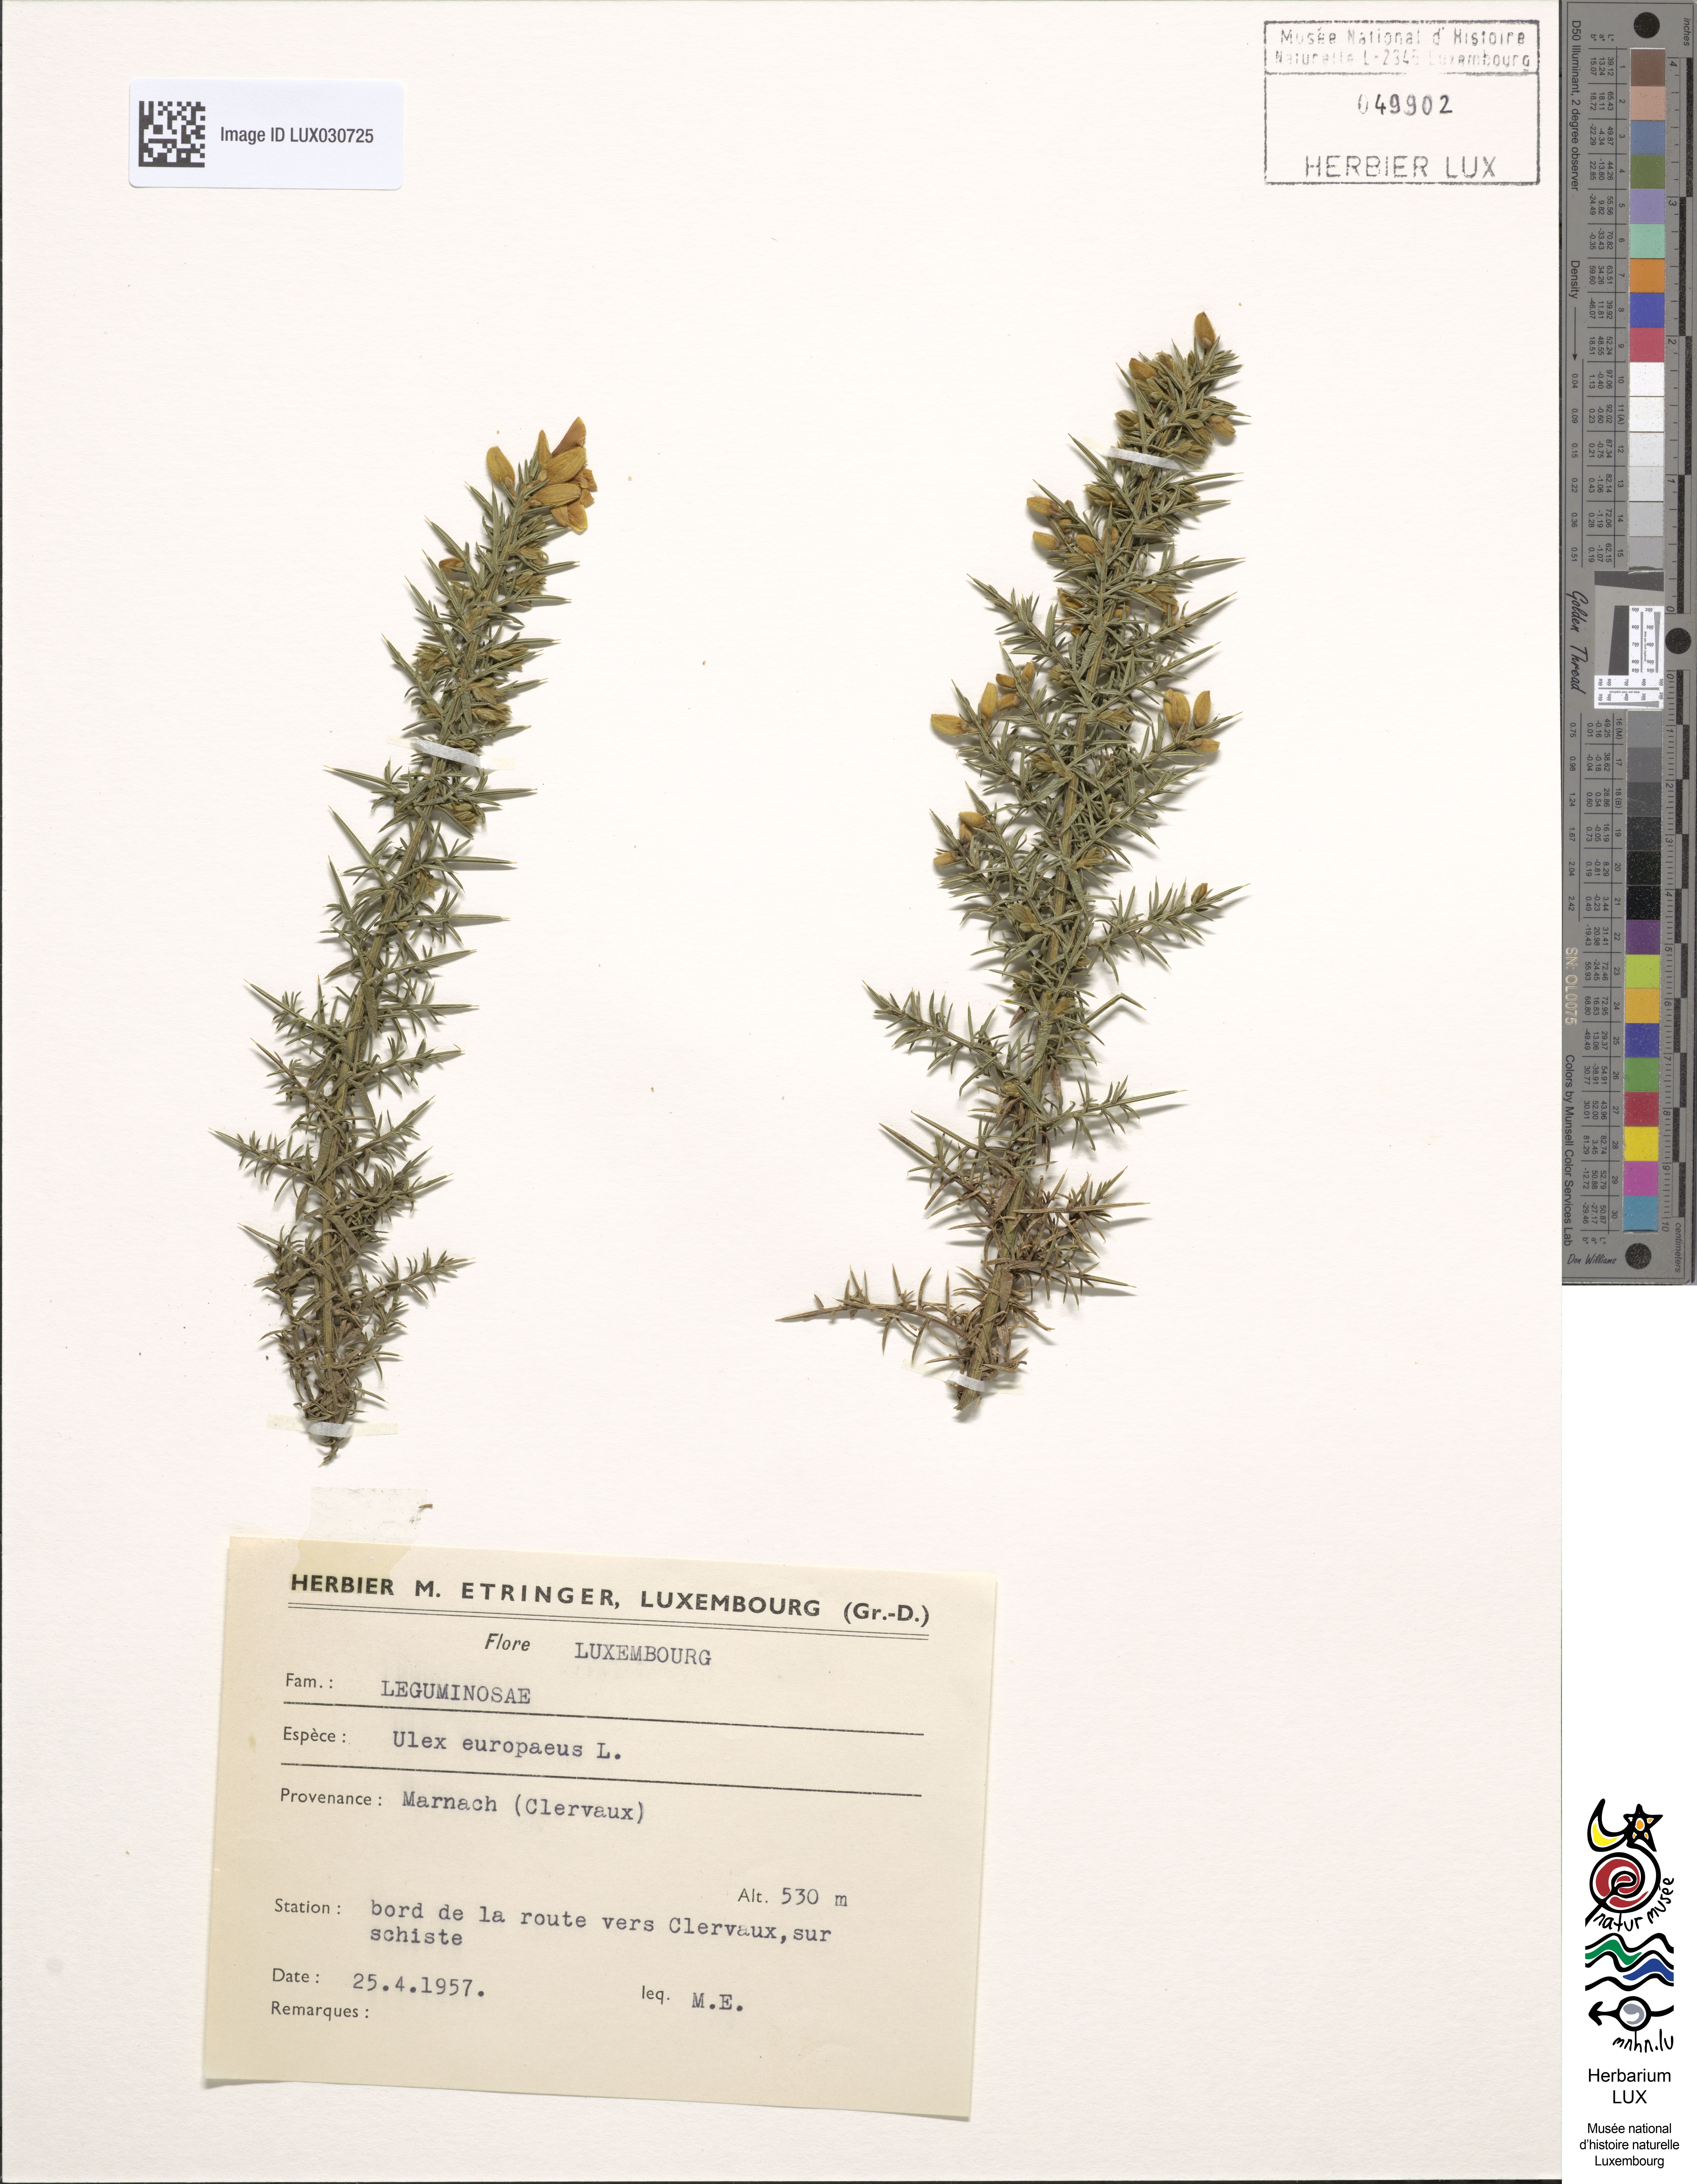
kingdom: Plantae
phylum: Tracheophyta
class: Magnoliopsida
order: Fabales
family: Fabaceae
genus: Ulex
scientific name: Ulex europaeus
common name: Common gorse
